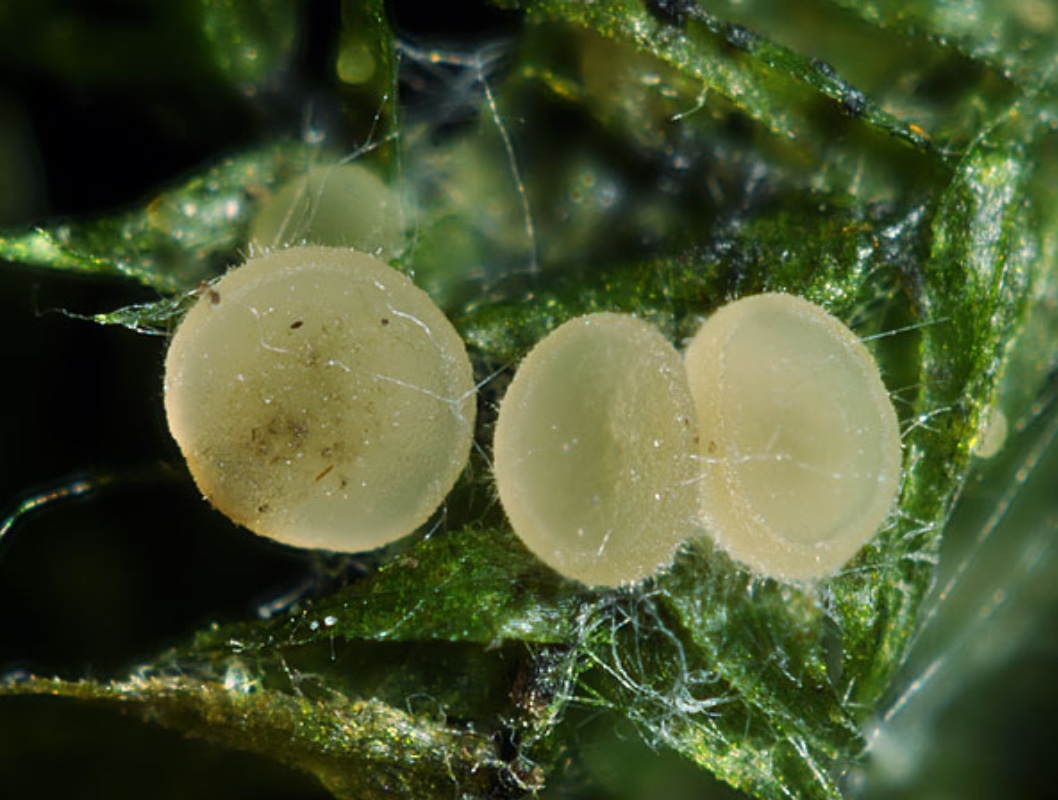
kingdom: Fungi
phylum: Ascomycota
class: Leotiomycetes
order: Helotiales
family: Helotiaceae
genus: Bryoscyphus
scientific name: Bryoscyphus phascoides
